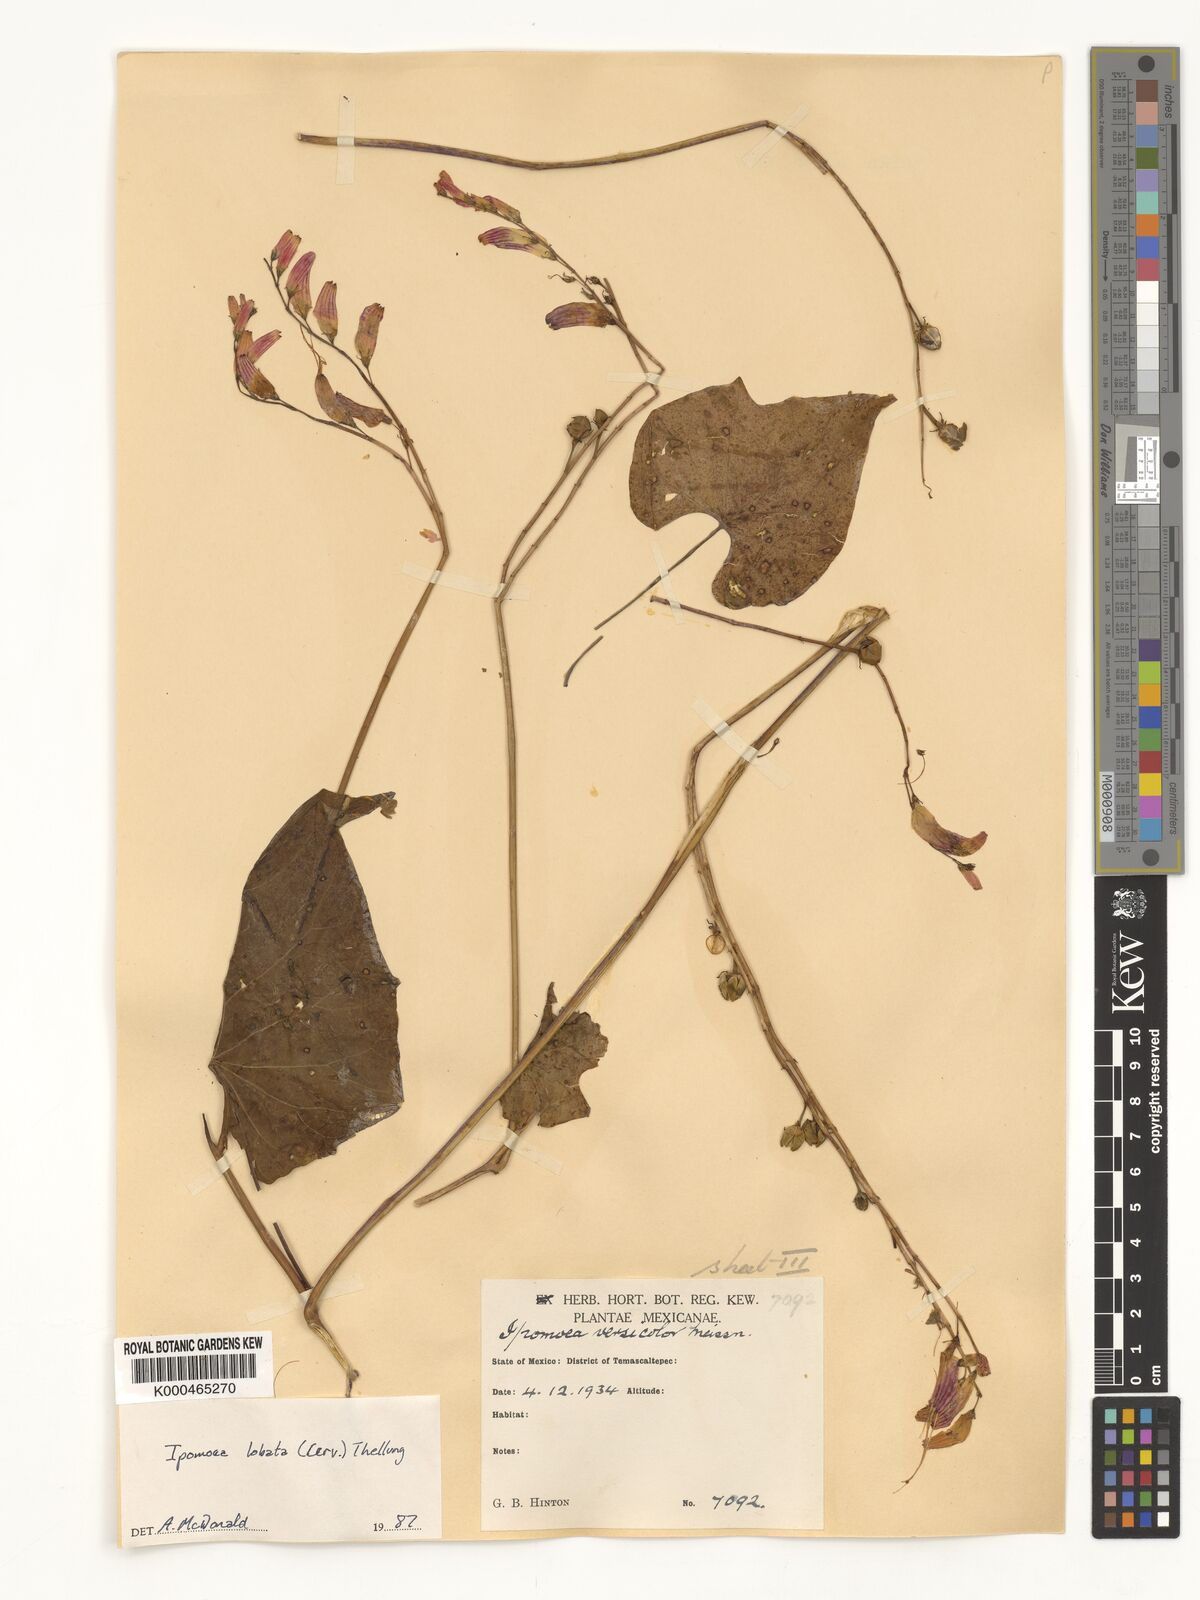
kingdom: Plantae
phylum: Tracheophyta
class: Magnoliopsida
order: Solanales
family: Convolvulaceae
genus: Ipomoea
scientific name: Ipomoea lobata
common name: Spanish-flag
